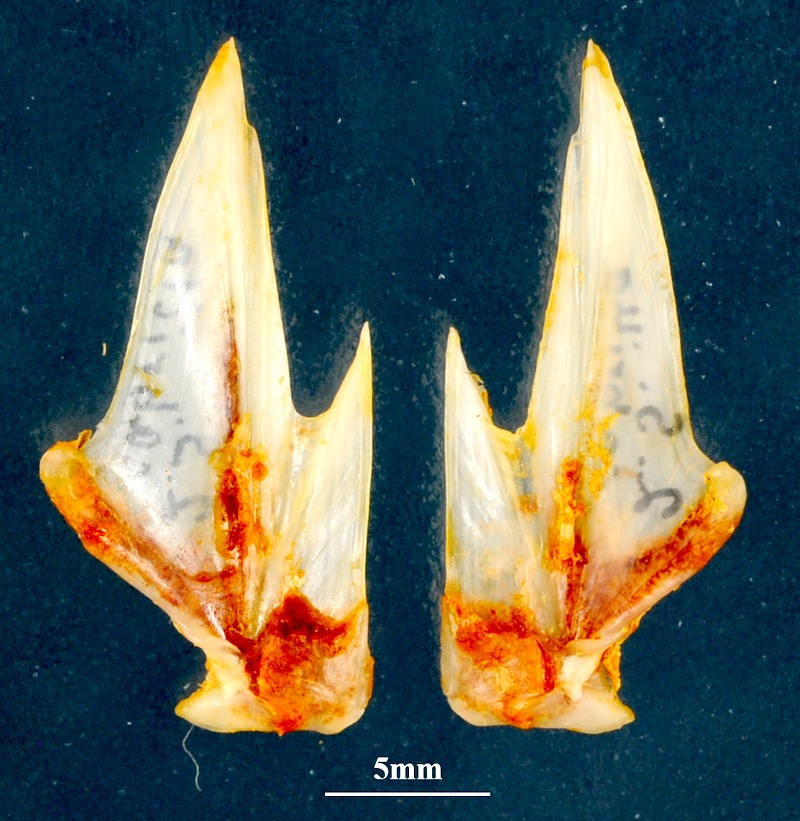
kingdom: Animalia
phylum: Chordata
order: Perciformes
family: Serranidae
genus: Serranus
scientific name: Serranus cabrilla
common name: Comber
